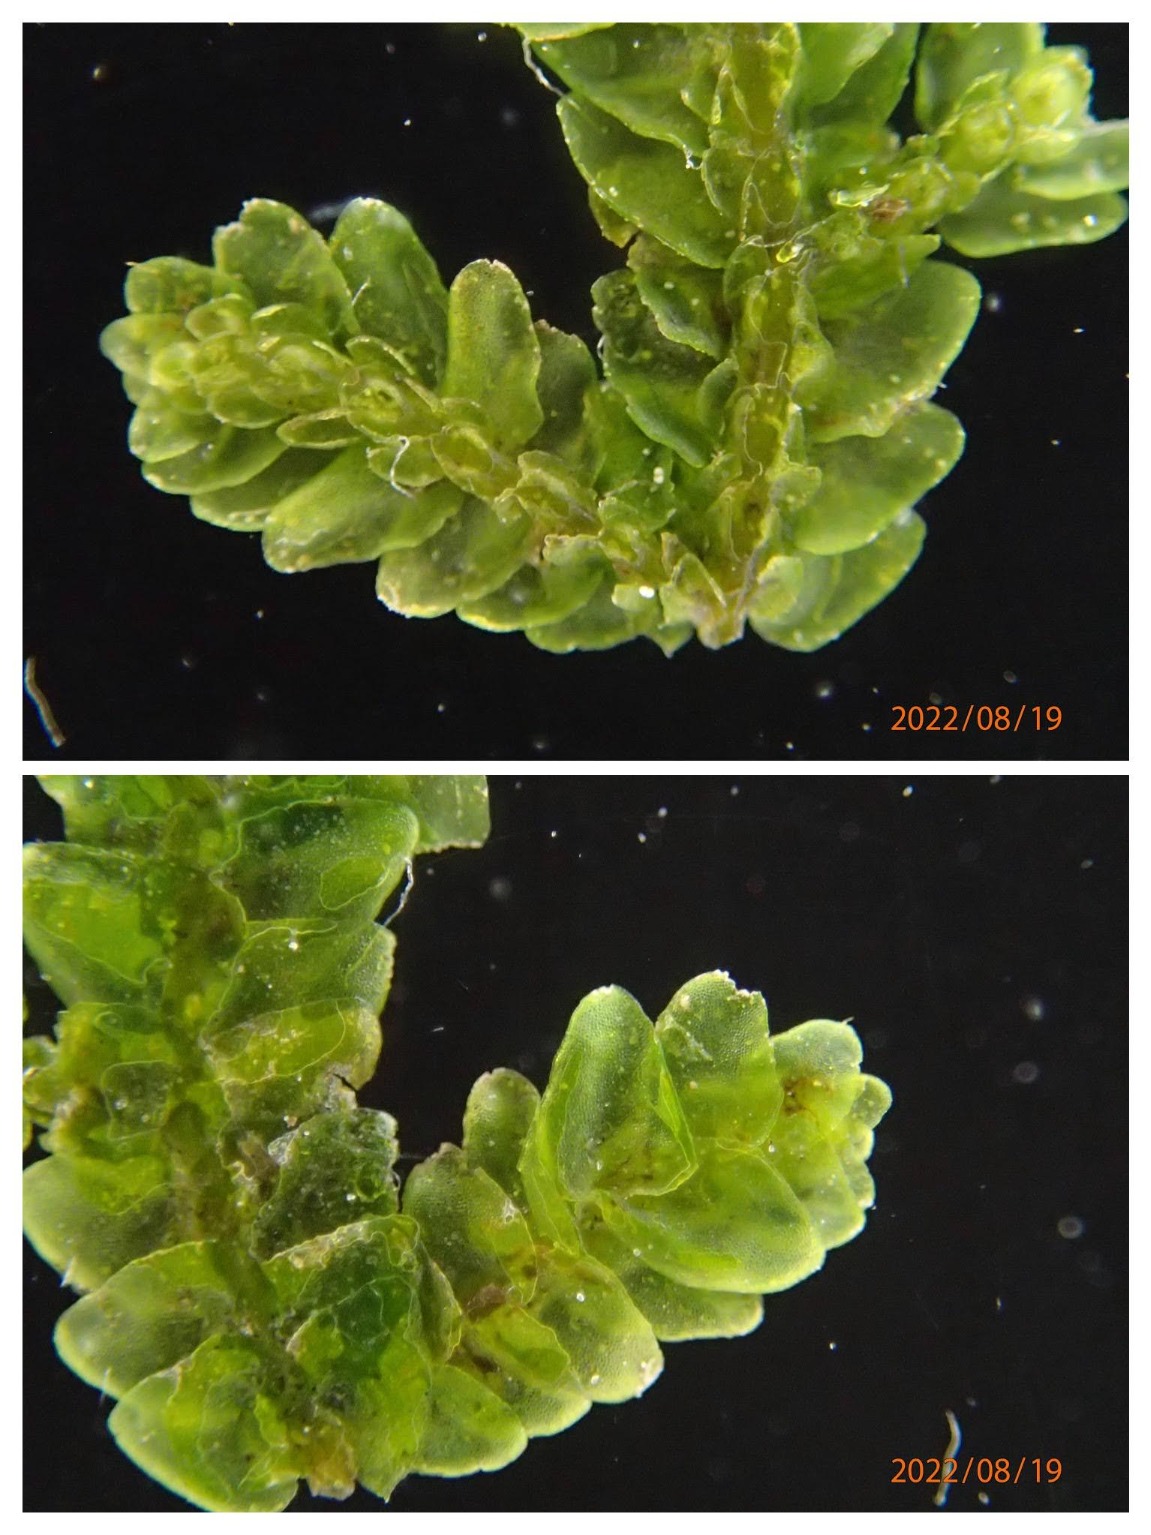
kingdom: Plantae
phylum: Marchantiophyta
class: Jungermanniopsida
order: Porellales
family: Porellaceae
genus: Porella
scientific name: Porella platyphylla
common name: Almindelig skælryg
